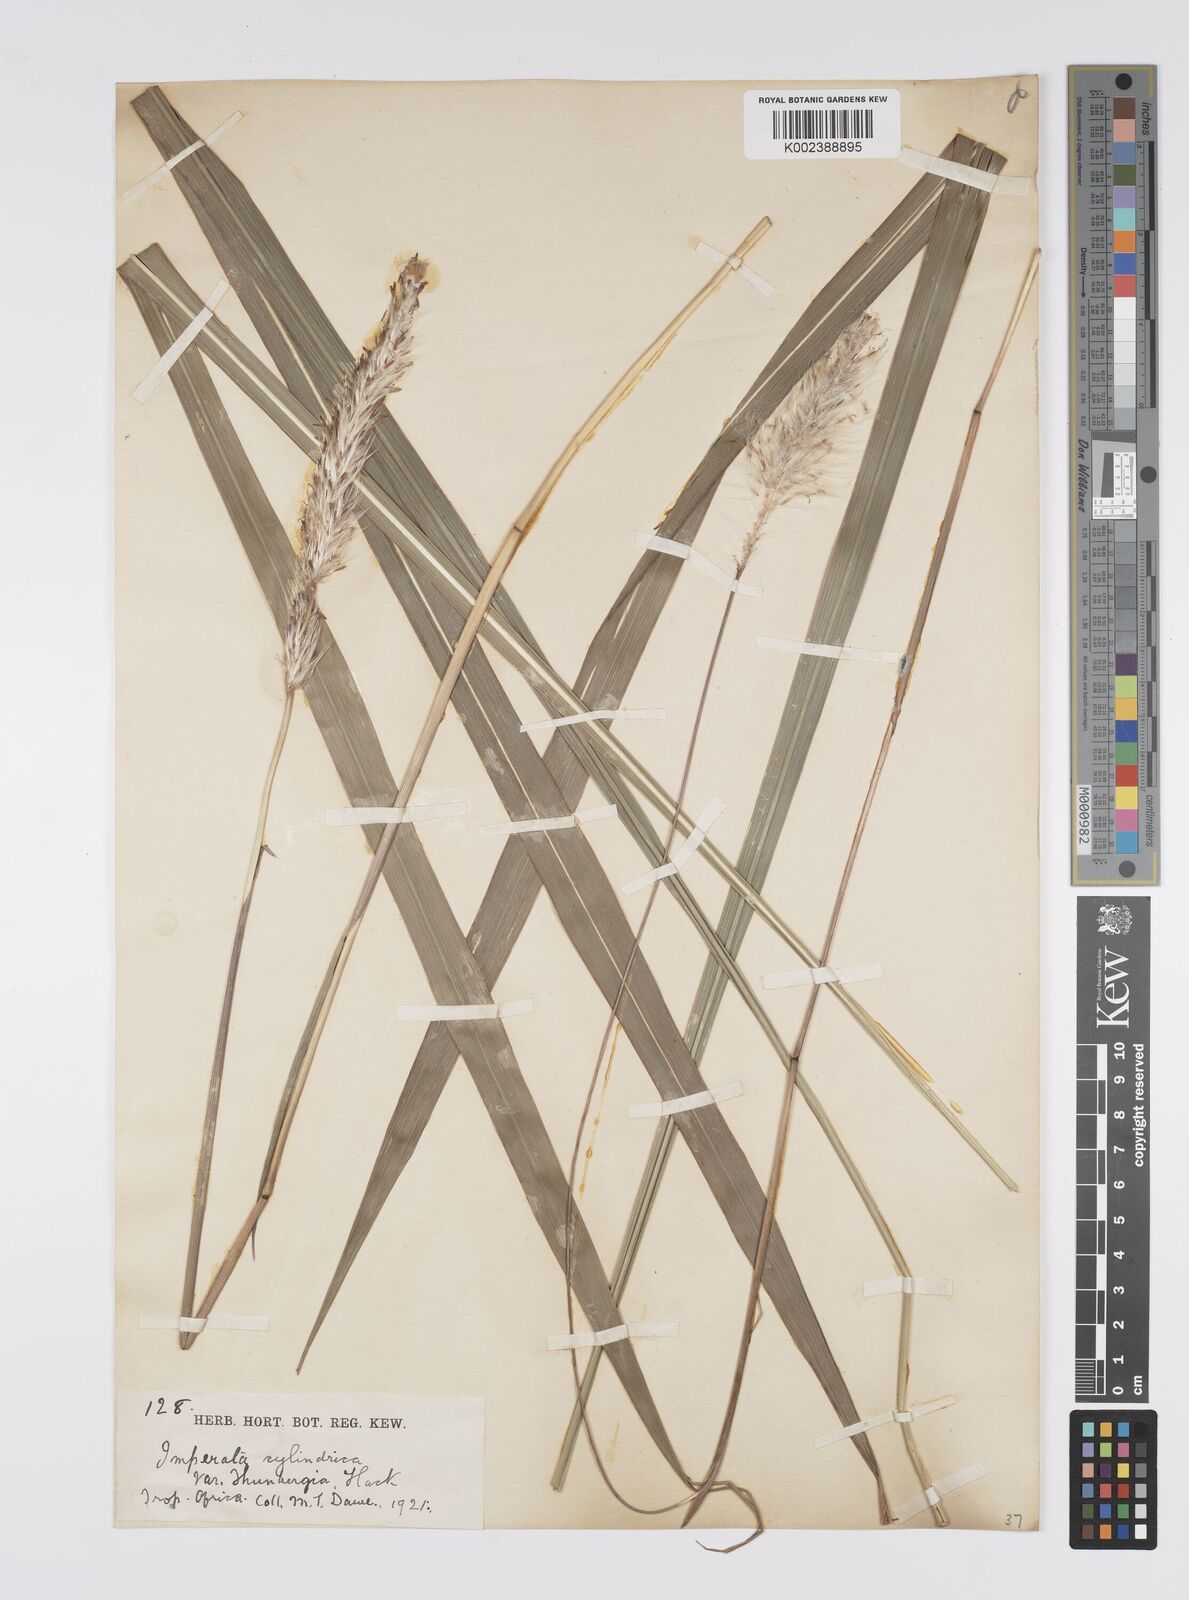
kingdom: Plantae
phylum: Tracheophyta
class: Liliopsida
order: Poales
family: Poaceae
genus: Imperata
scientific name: Imperata cylindrica
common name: Cogongrass
